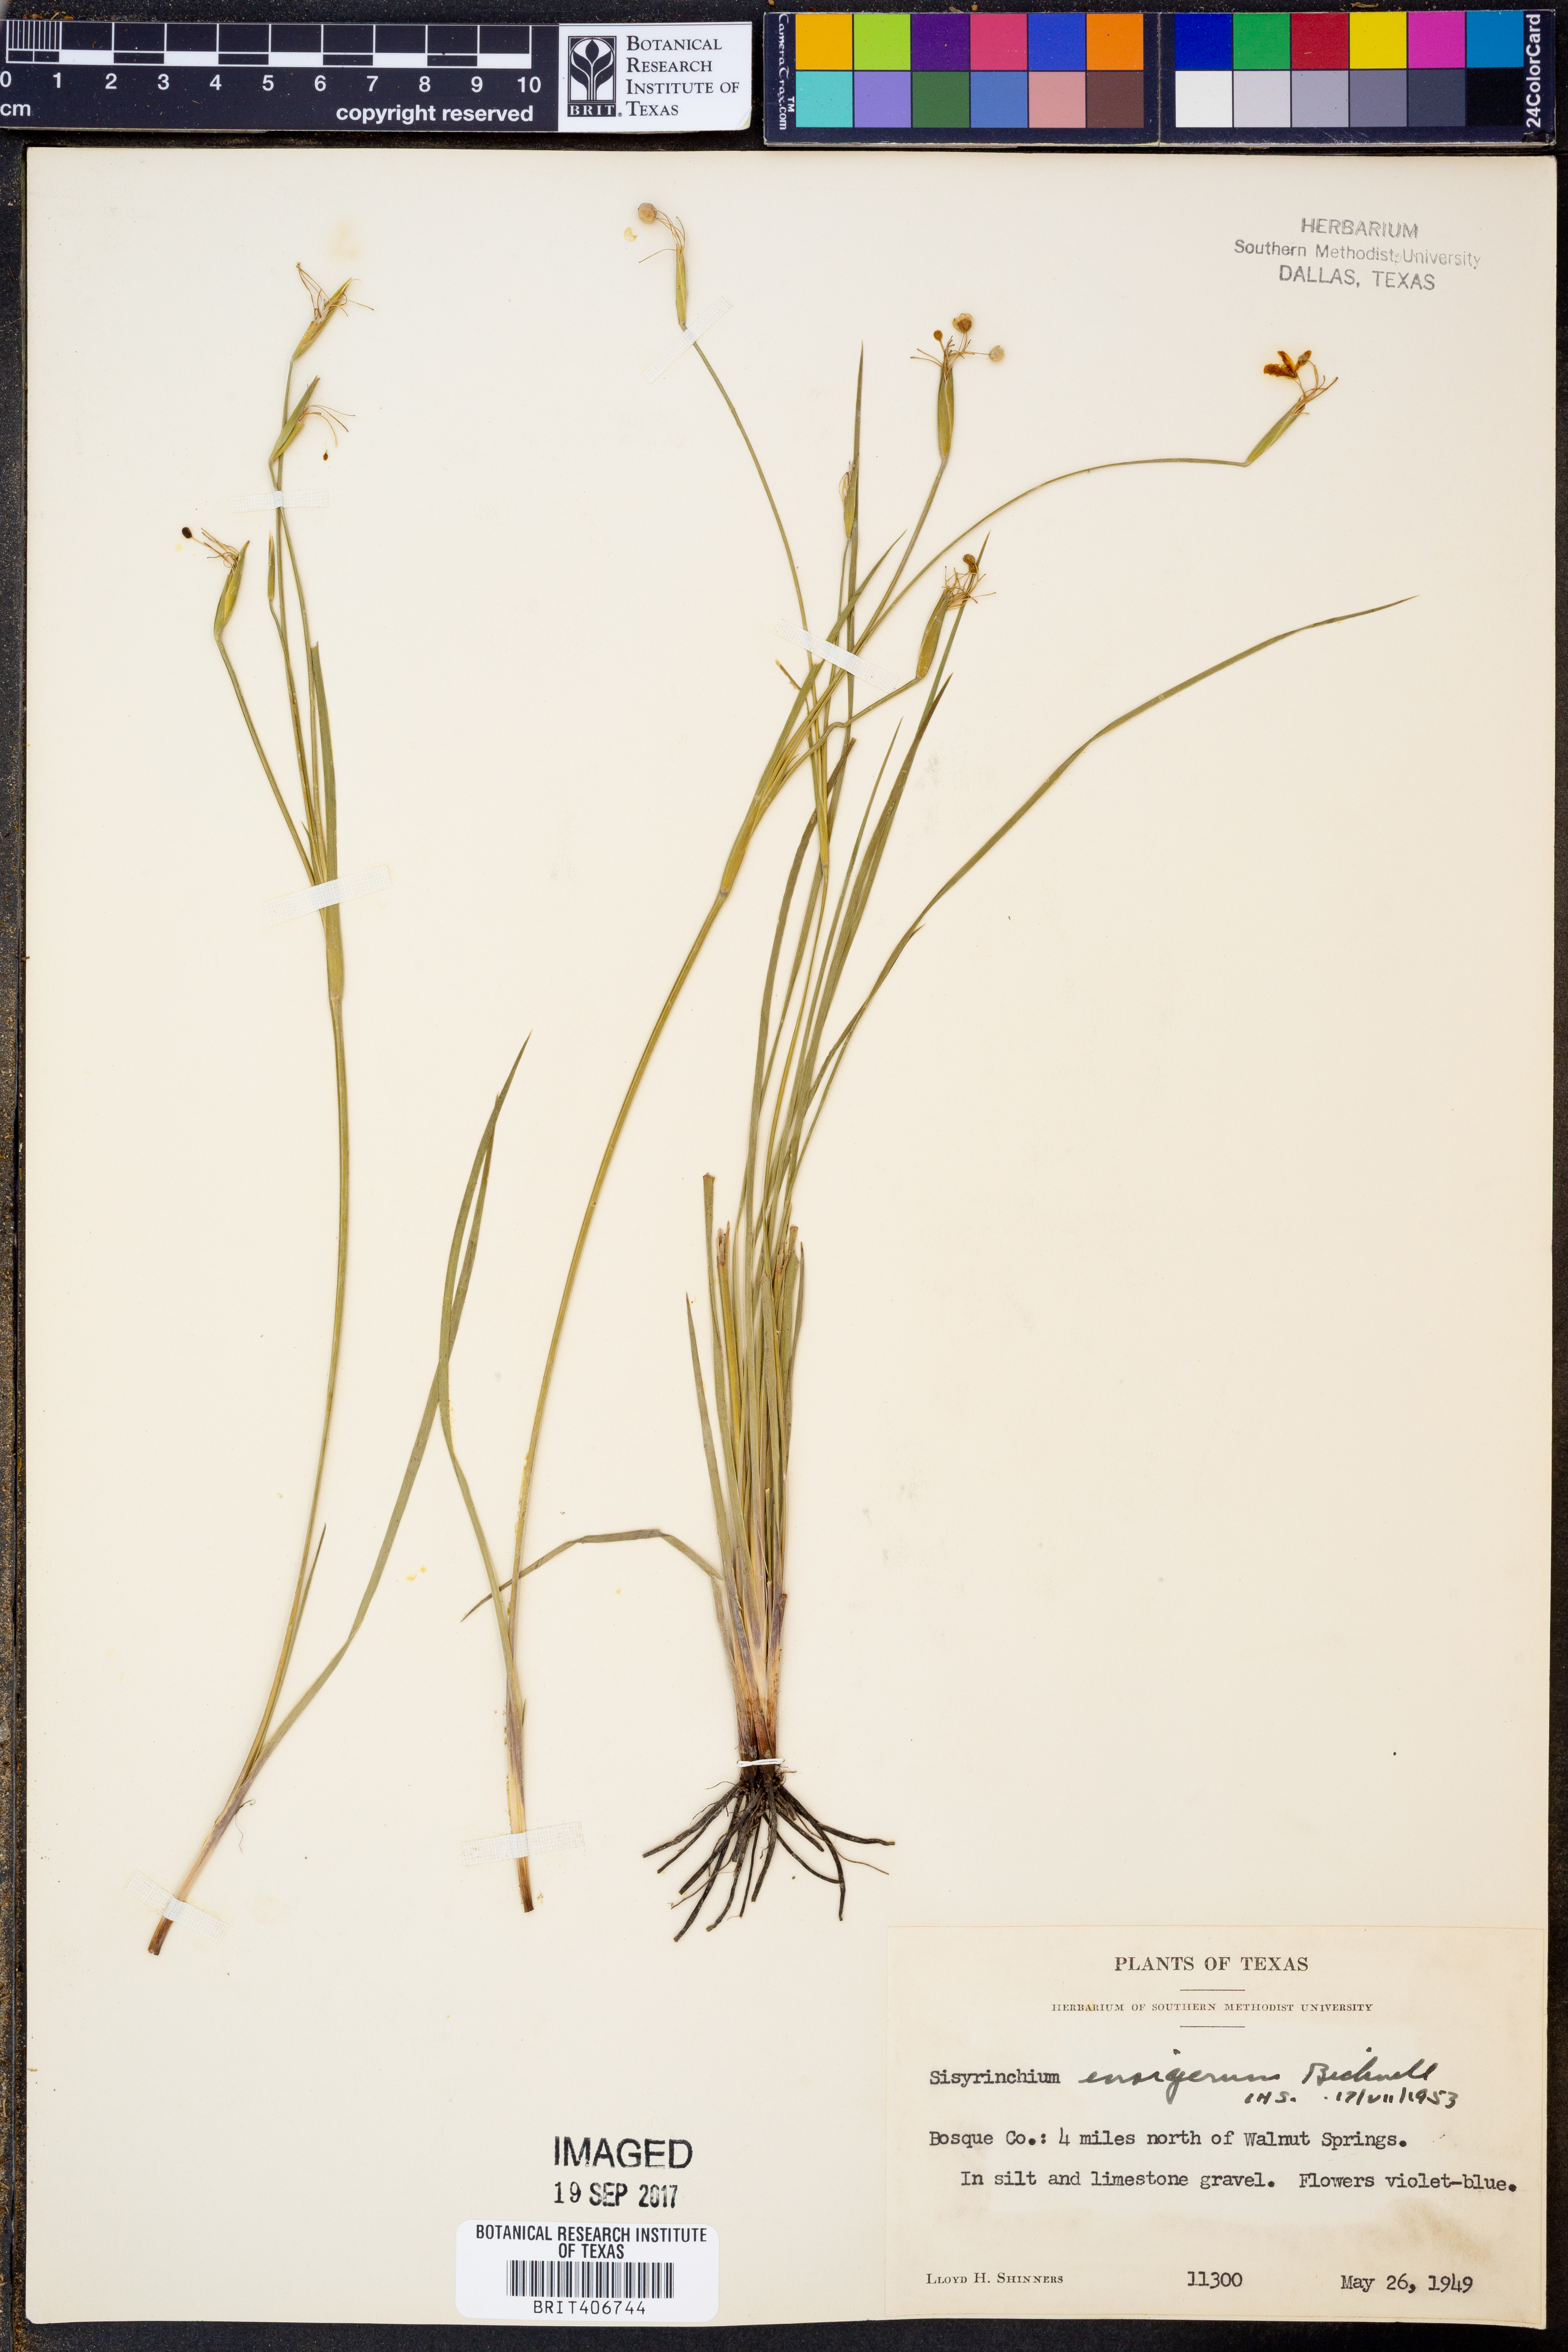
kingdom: Plantae
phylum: Tracheophyta
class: Liliopsida
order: Asparagales
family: Iridaceae
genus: Sisyrinchium
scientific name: Sisyrinchium ensigerum
